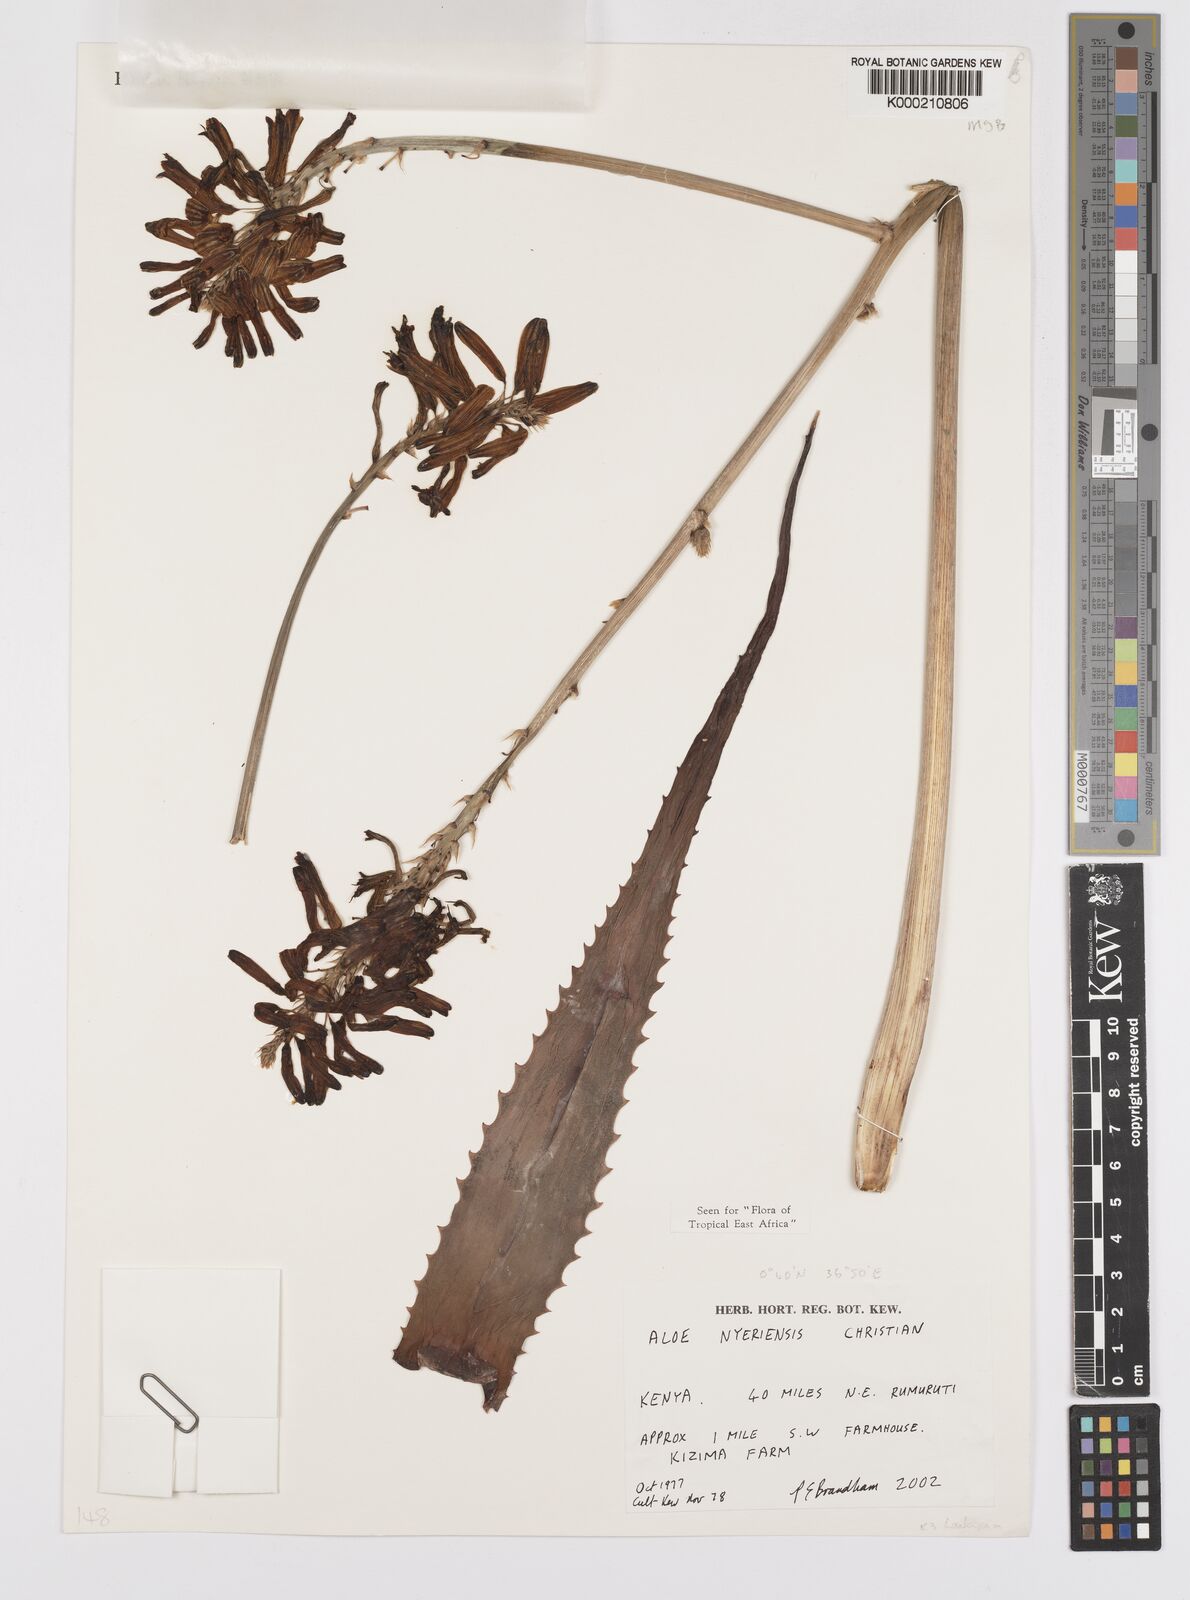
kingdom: Plantae
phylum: Tracheophyta
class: Liliopsida
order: Asparagales
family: Asphodelaceae
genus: Aloe
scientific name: Aloe nyeriensis
